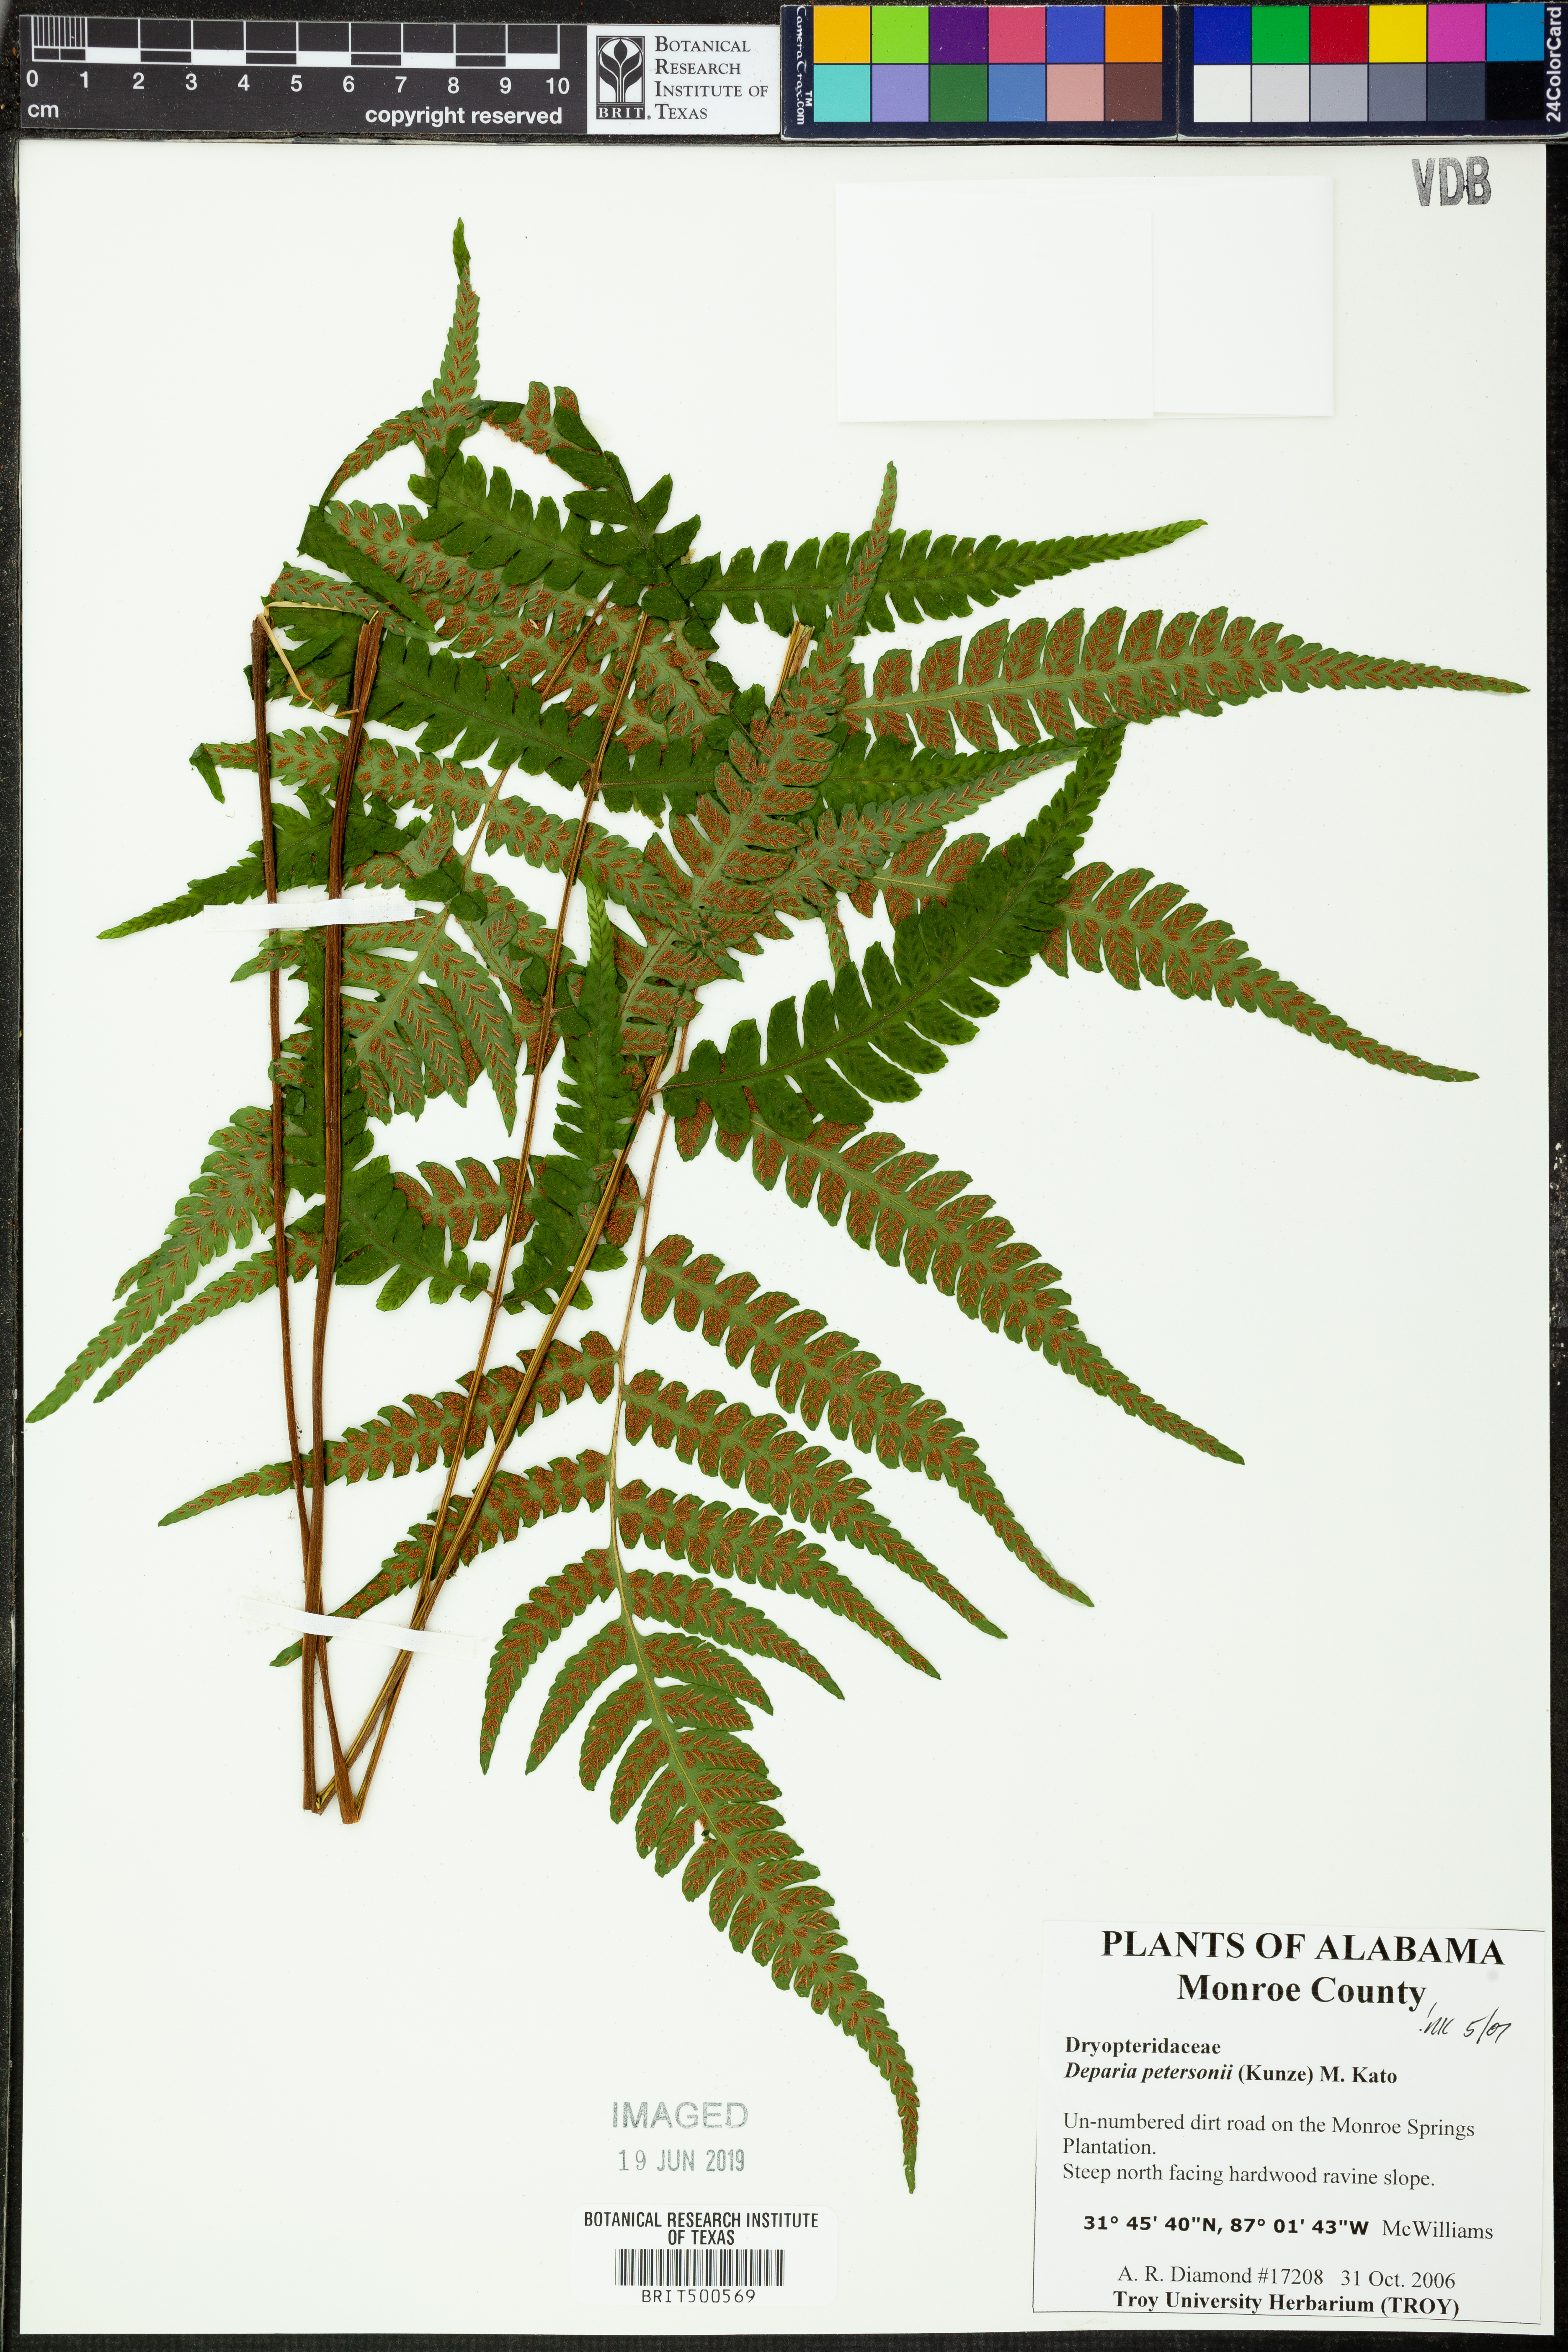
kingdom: Plantae
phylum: Tracheophyta
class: Polypodiopsida
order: Polypodiales
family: Athyriaceae
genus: Deparia
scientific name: Deparia petersenii
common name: Japanese false spleenwort
